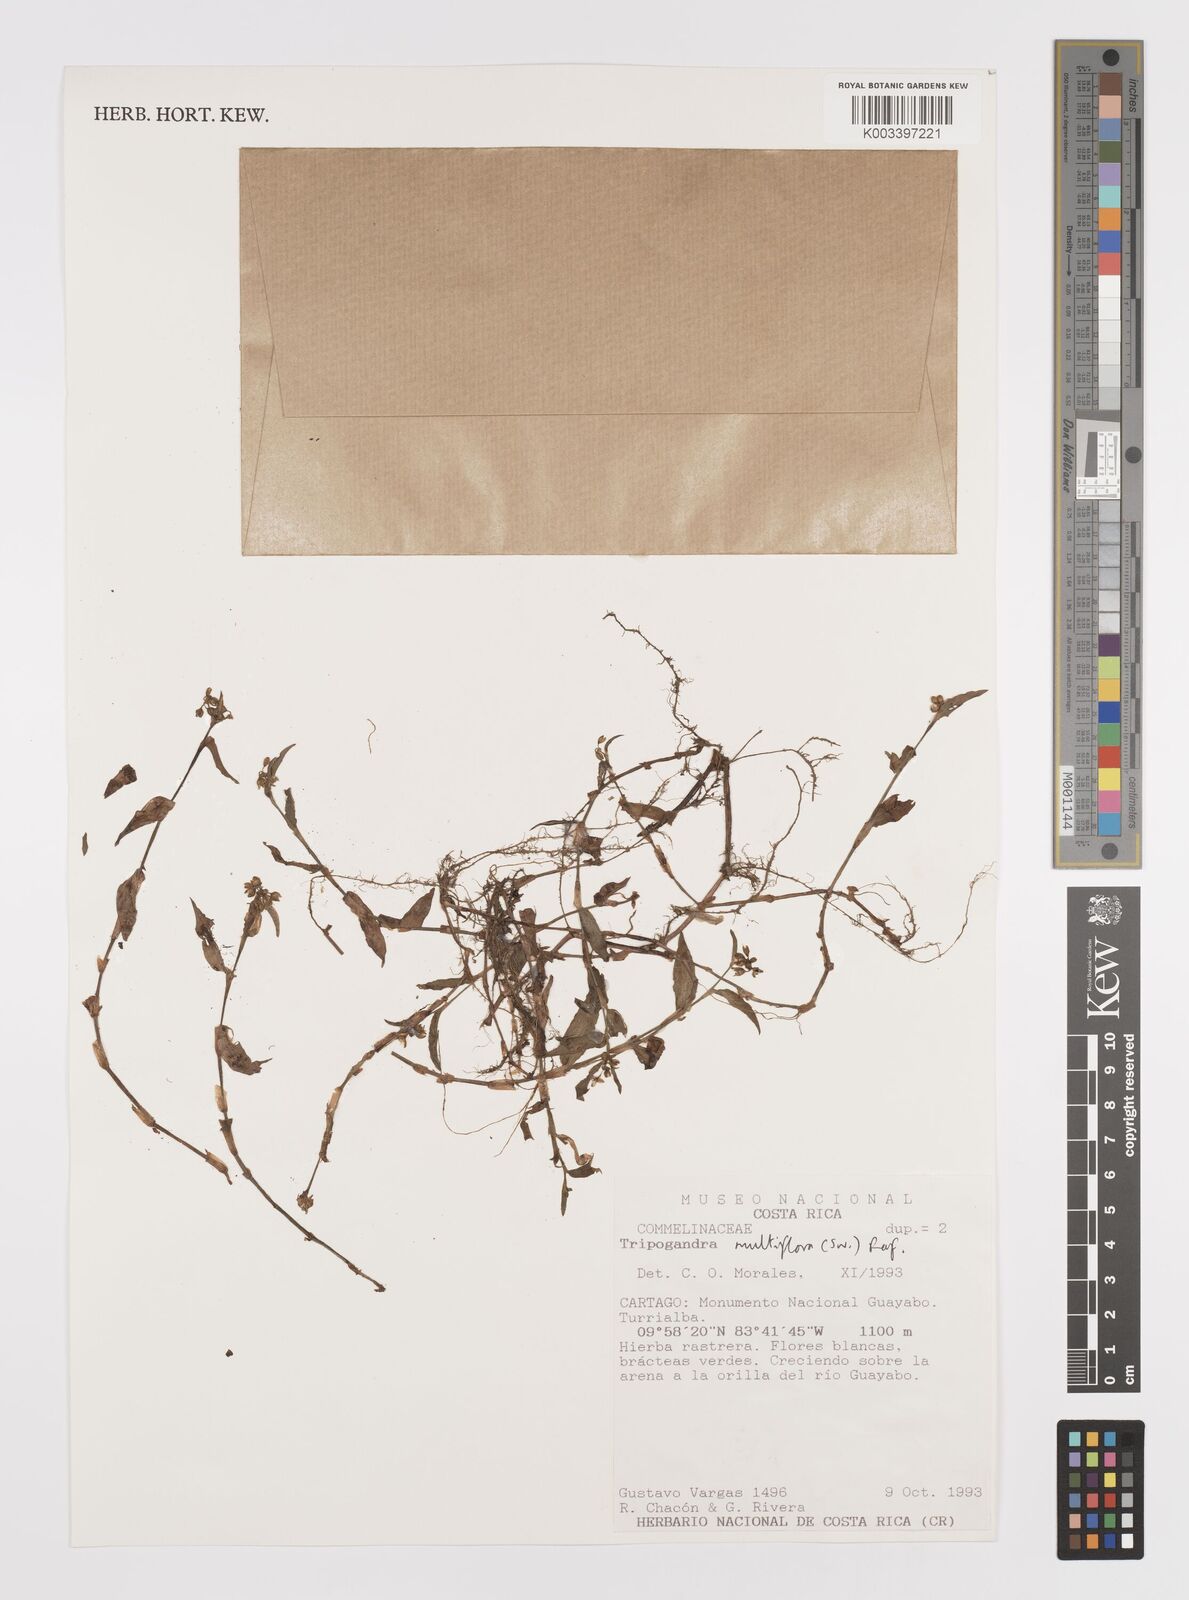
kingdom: Plantae
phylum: Tracheophyta
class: Liliopsida
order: Commelinales
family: Commelinaceae
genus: Callisia
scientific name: Callisia procumbens
